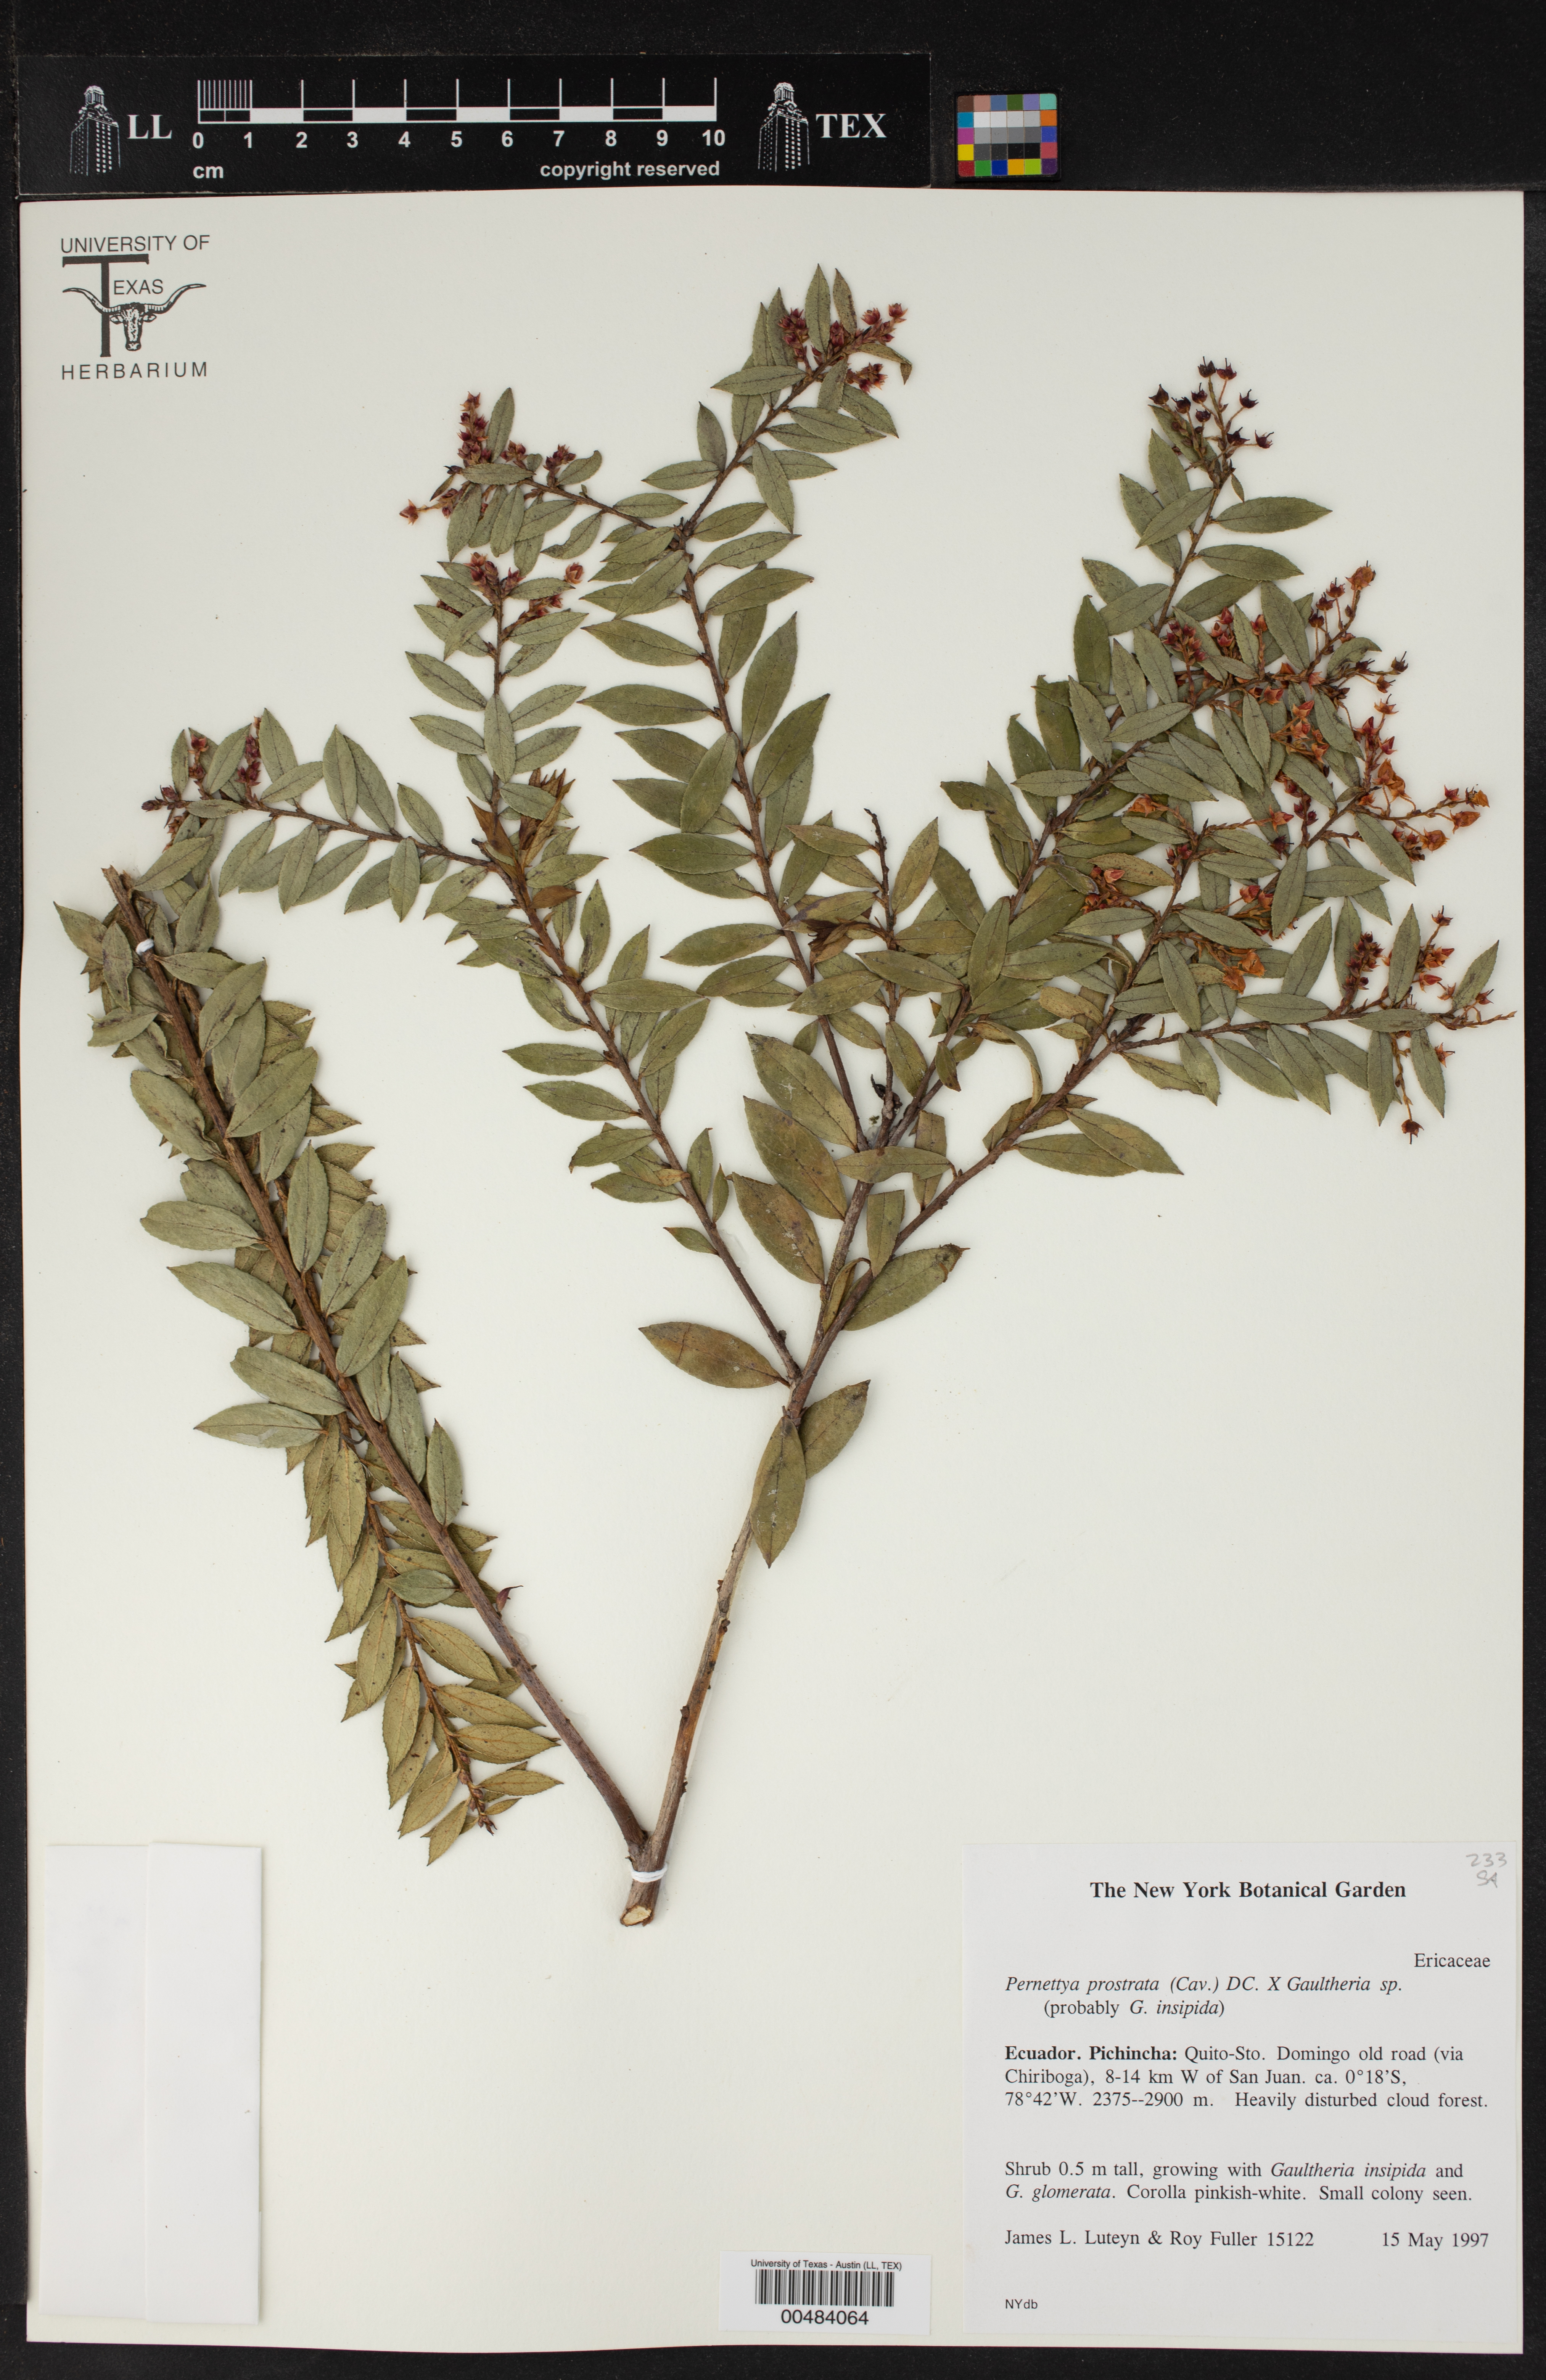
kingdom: Plantae
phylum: Tracheophyta
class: Magnoliopsida
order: Ericales
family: Ericaceae
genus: Gaultheria
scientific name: Gaultheria myrsinoides
